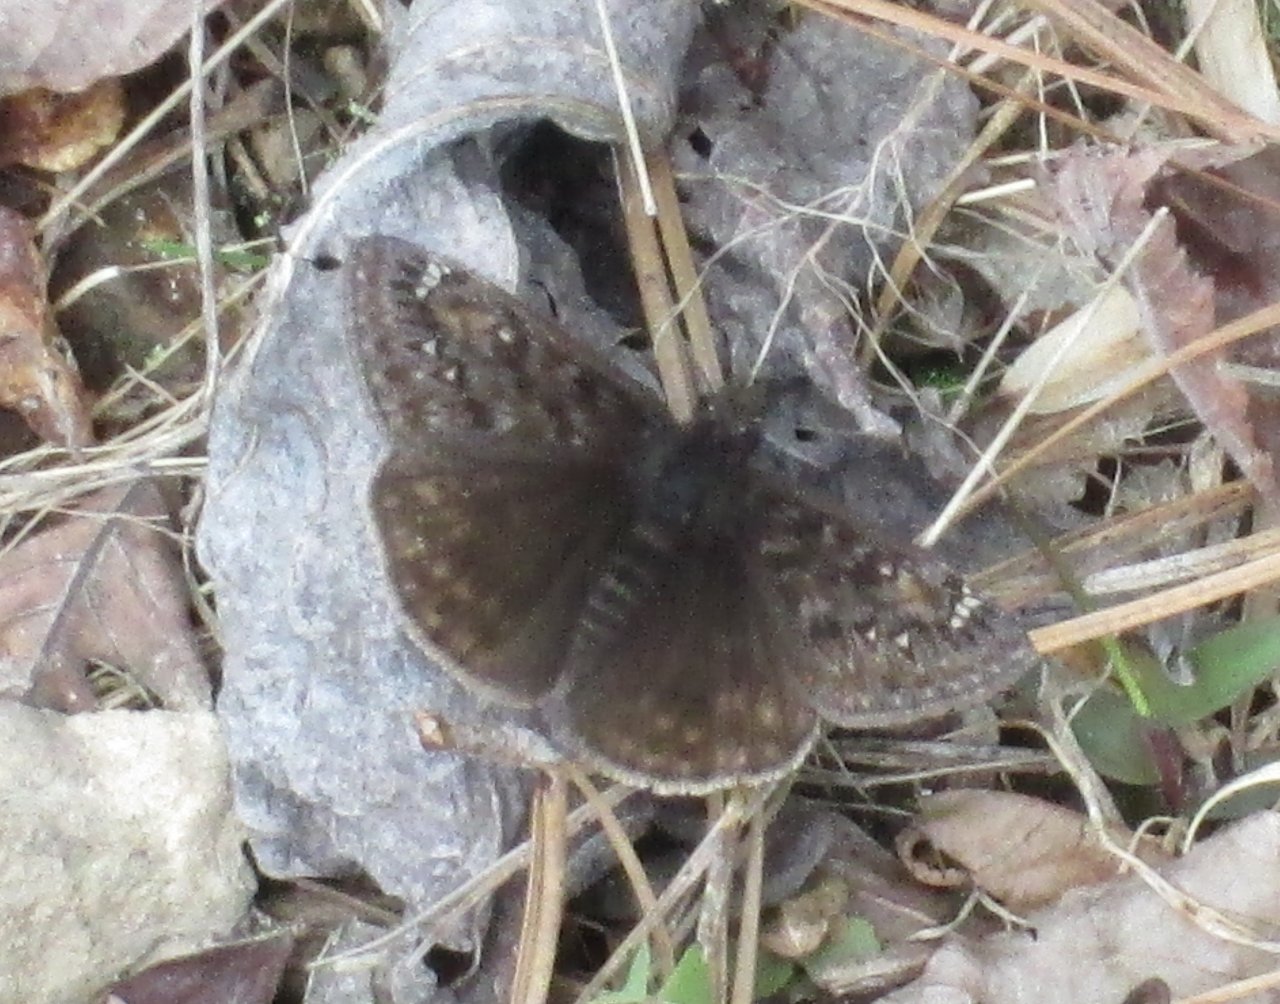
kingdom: Animalia
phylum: Arthropoda
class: Insecta
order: Lepidoptera
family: Hesperiidae
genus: Gesta
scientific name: Gesta
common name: Juvenal's Duskywing
